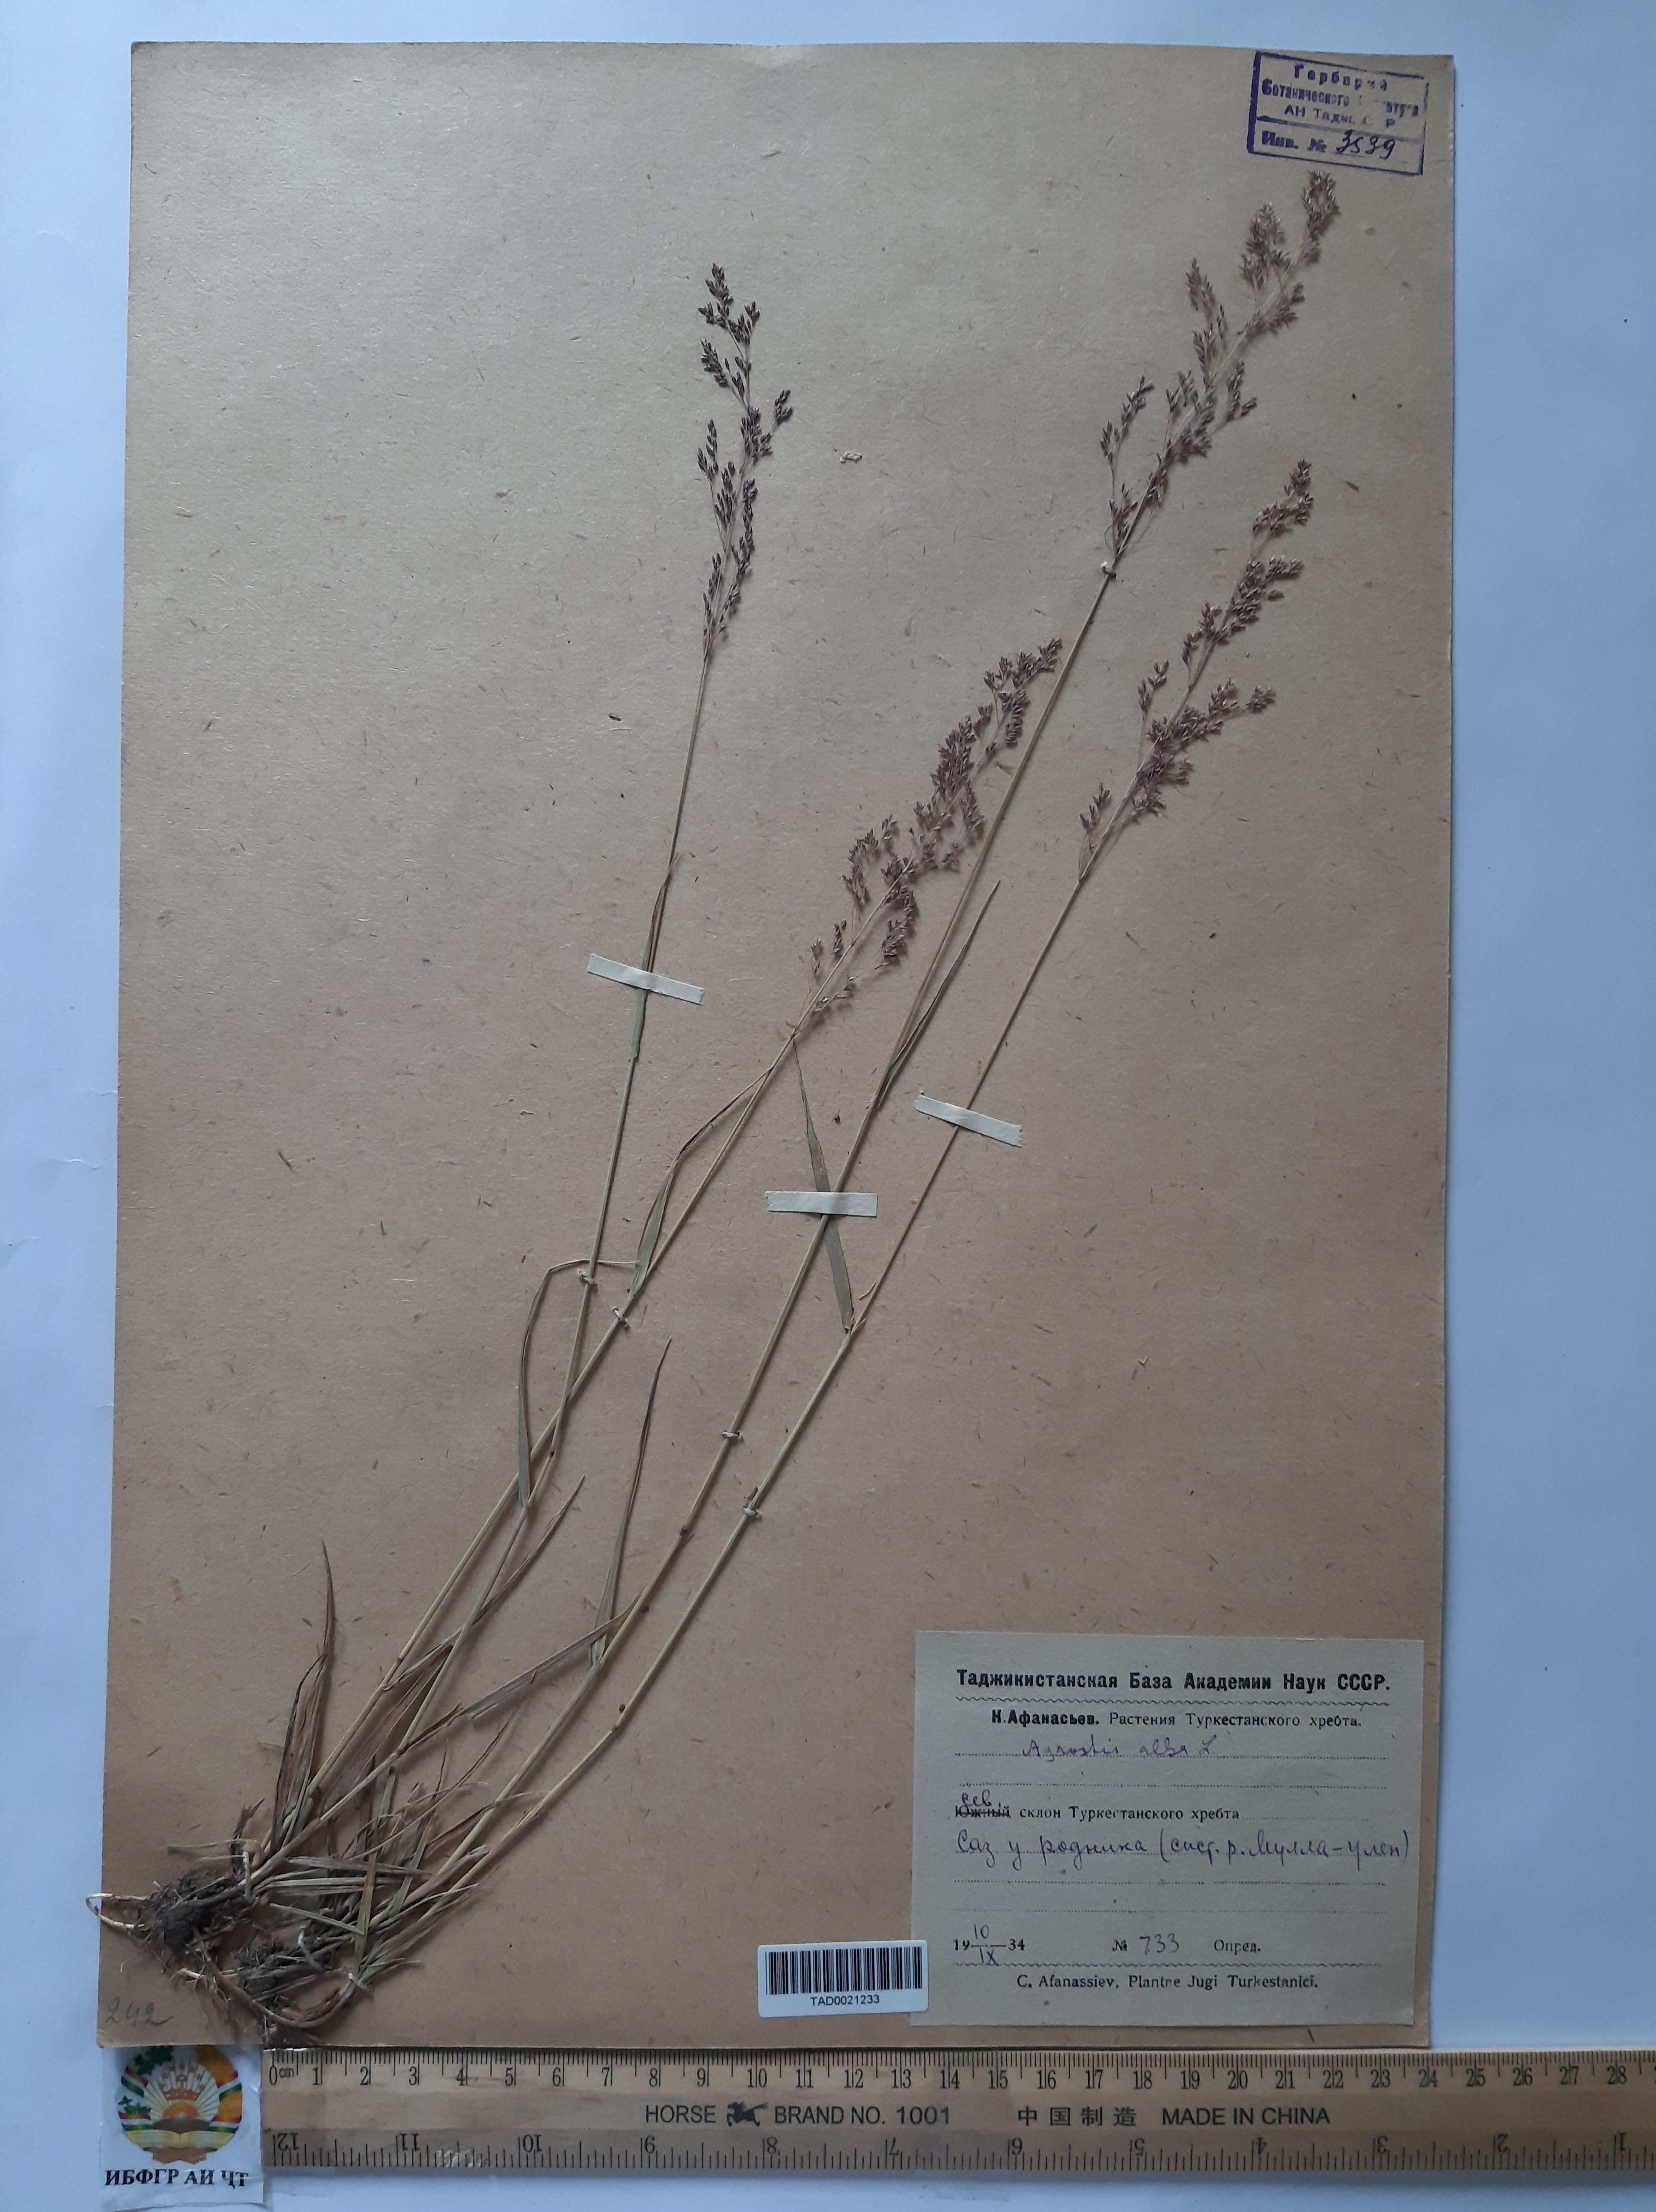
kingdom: Plantae
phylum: Tracheophyta
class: Liliopsida
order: Poales
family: Poaceae
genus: Poa
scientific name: Poa nemoralis
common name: Wood bluegrass
